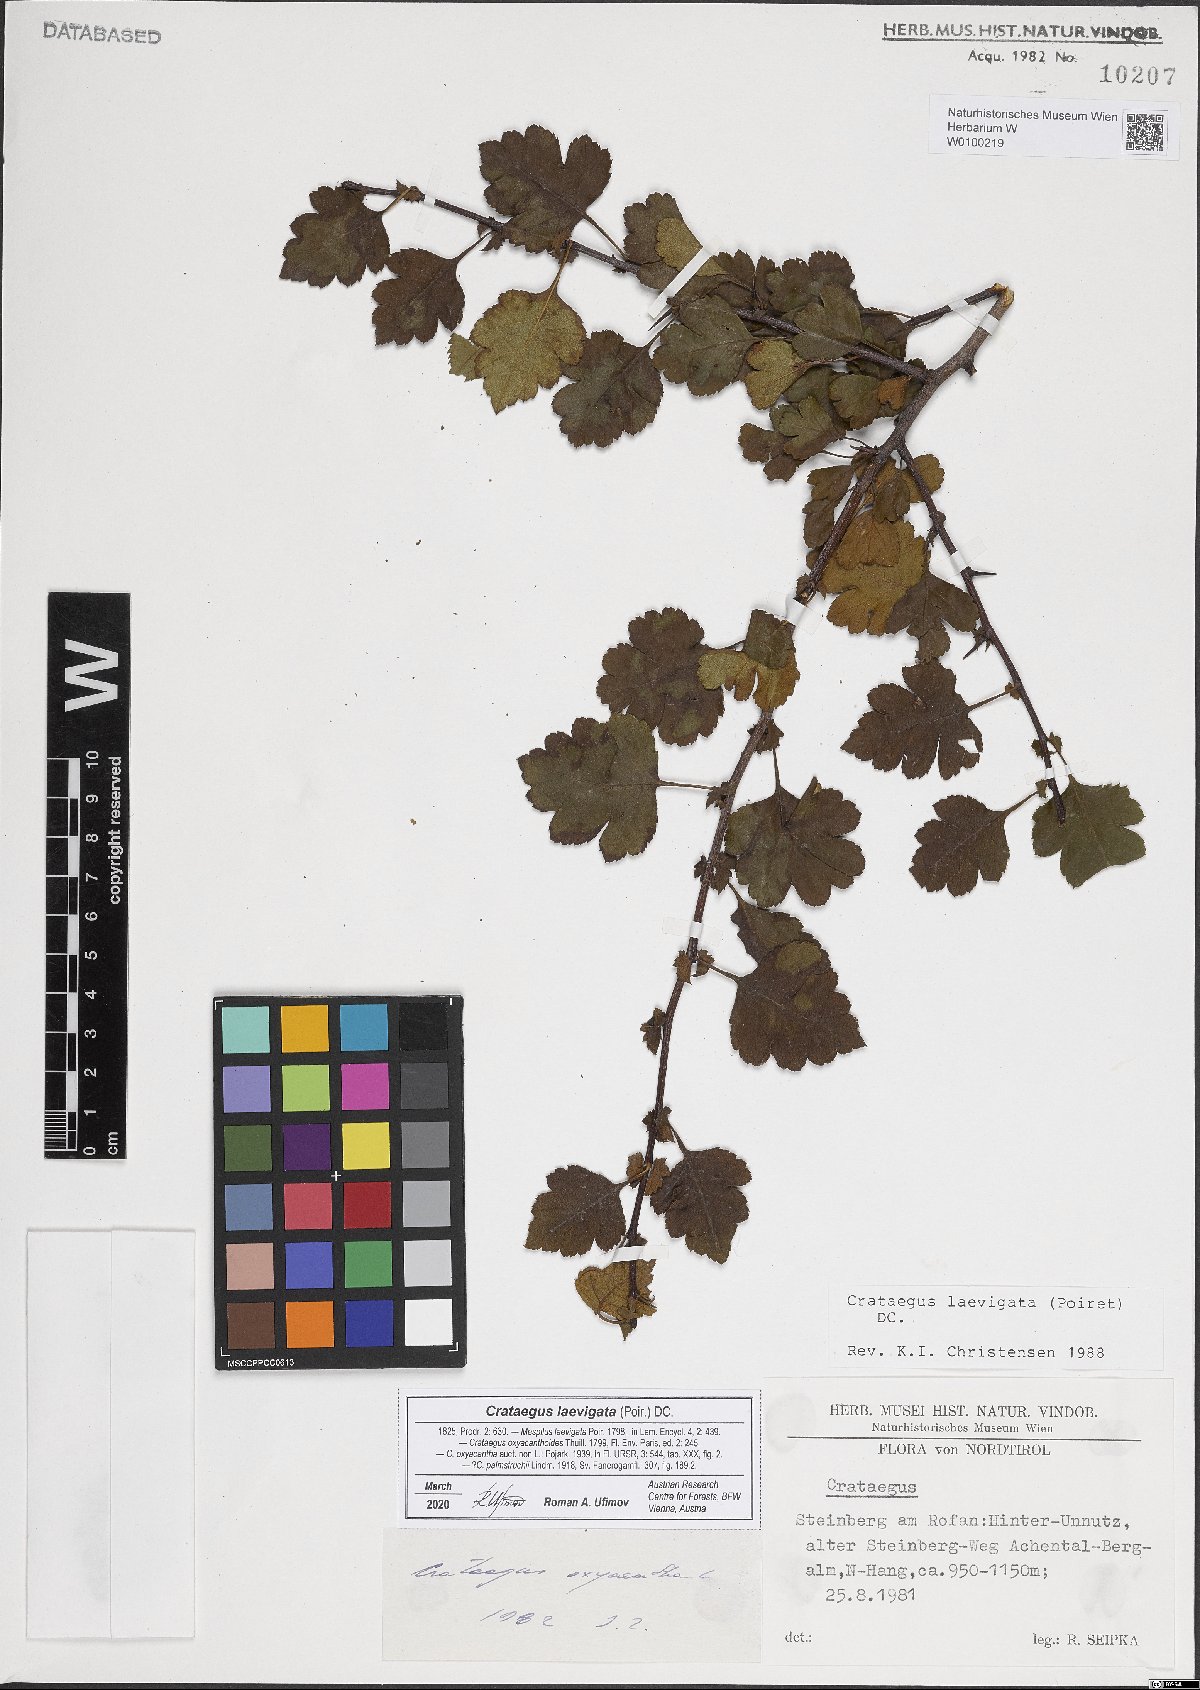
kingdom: Plantae
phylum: Tracheophyta
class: Magnoliopsida
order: Rosales
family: Rosaceae
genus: Crataegus
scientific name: Crataegus laevigata
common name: Midland hawthorn
